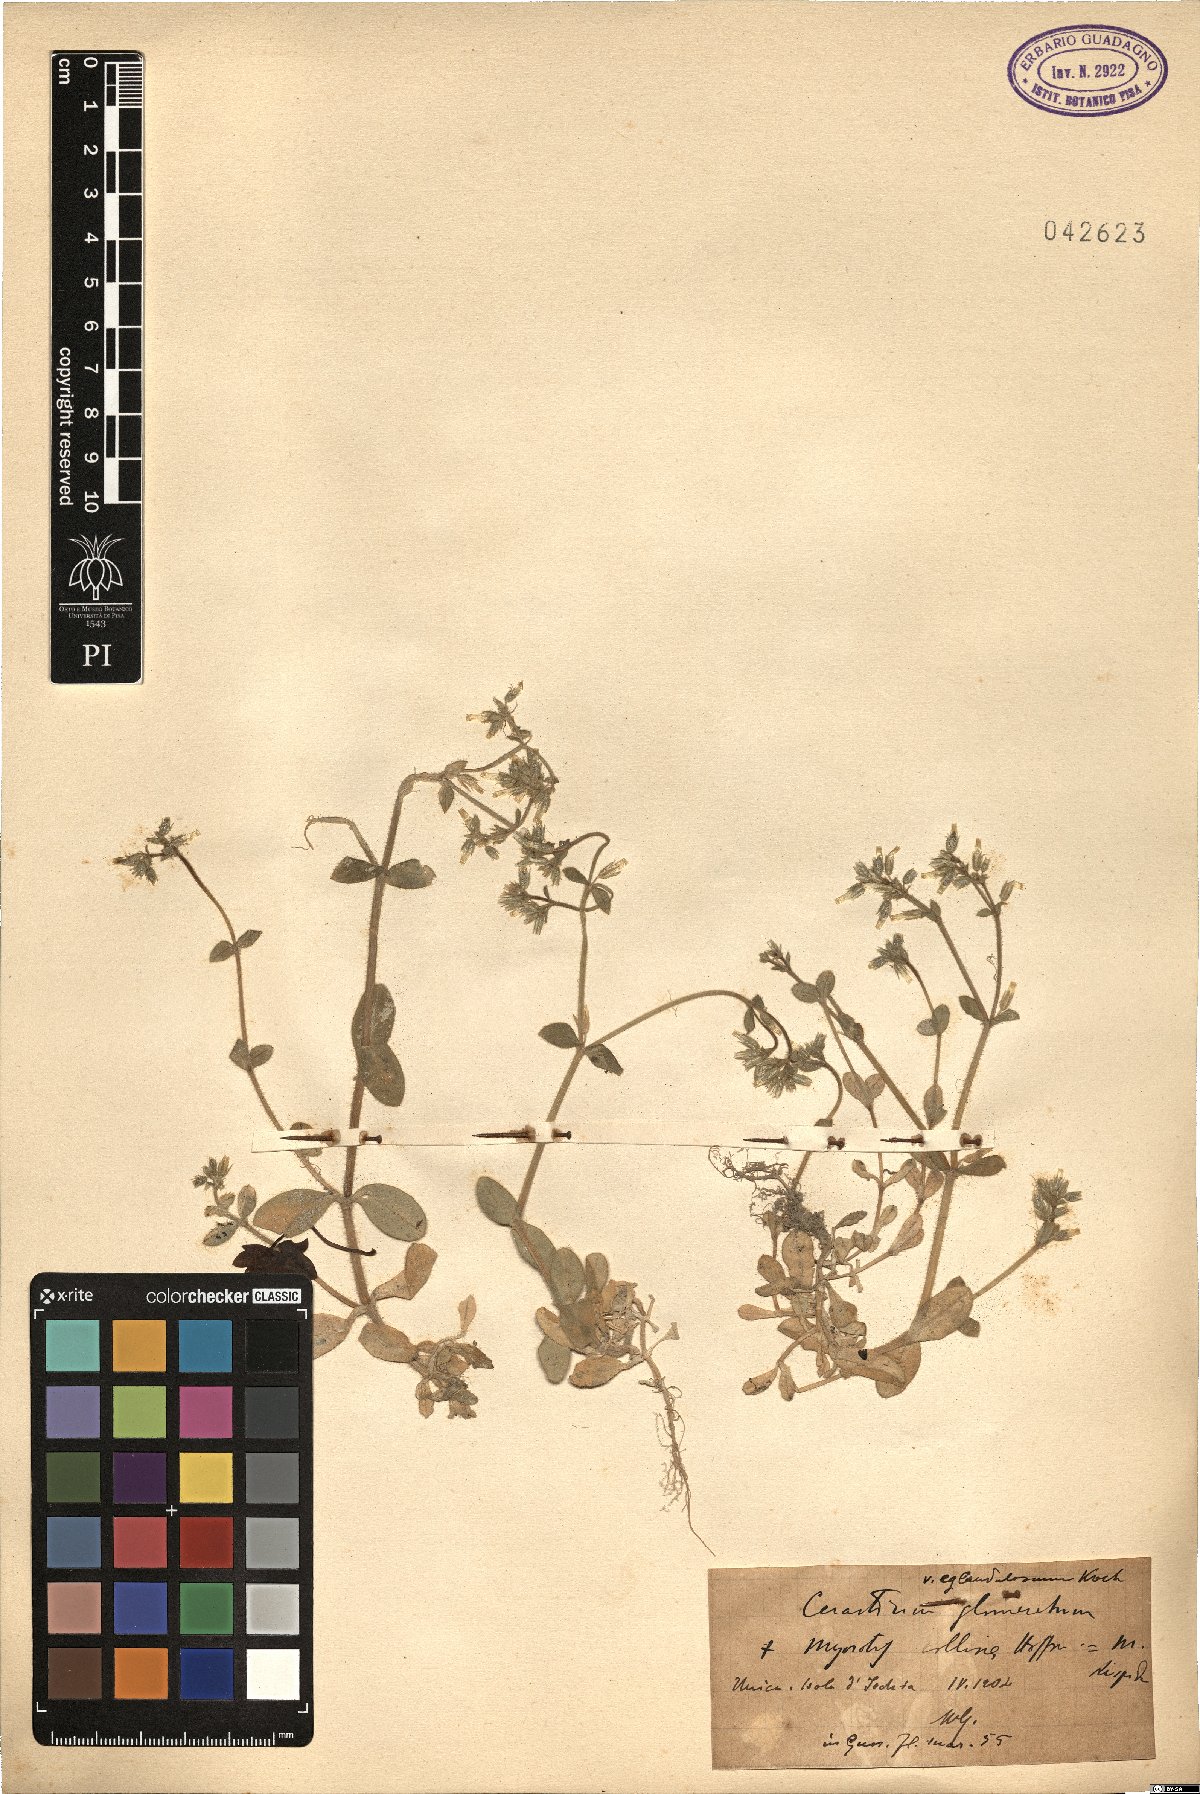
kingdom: Plantae
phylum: Tracheophyta
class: Magnoliopsida
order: Caryophyllales
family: Caryophyllaceae
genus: Cerastium
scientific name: Cerastium glomeratum
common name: Sticky chickweed
